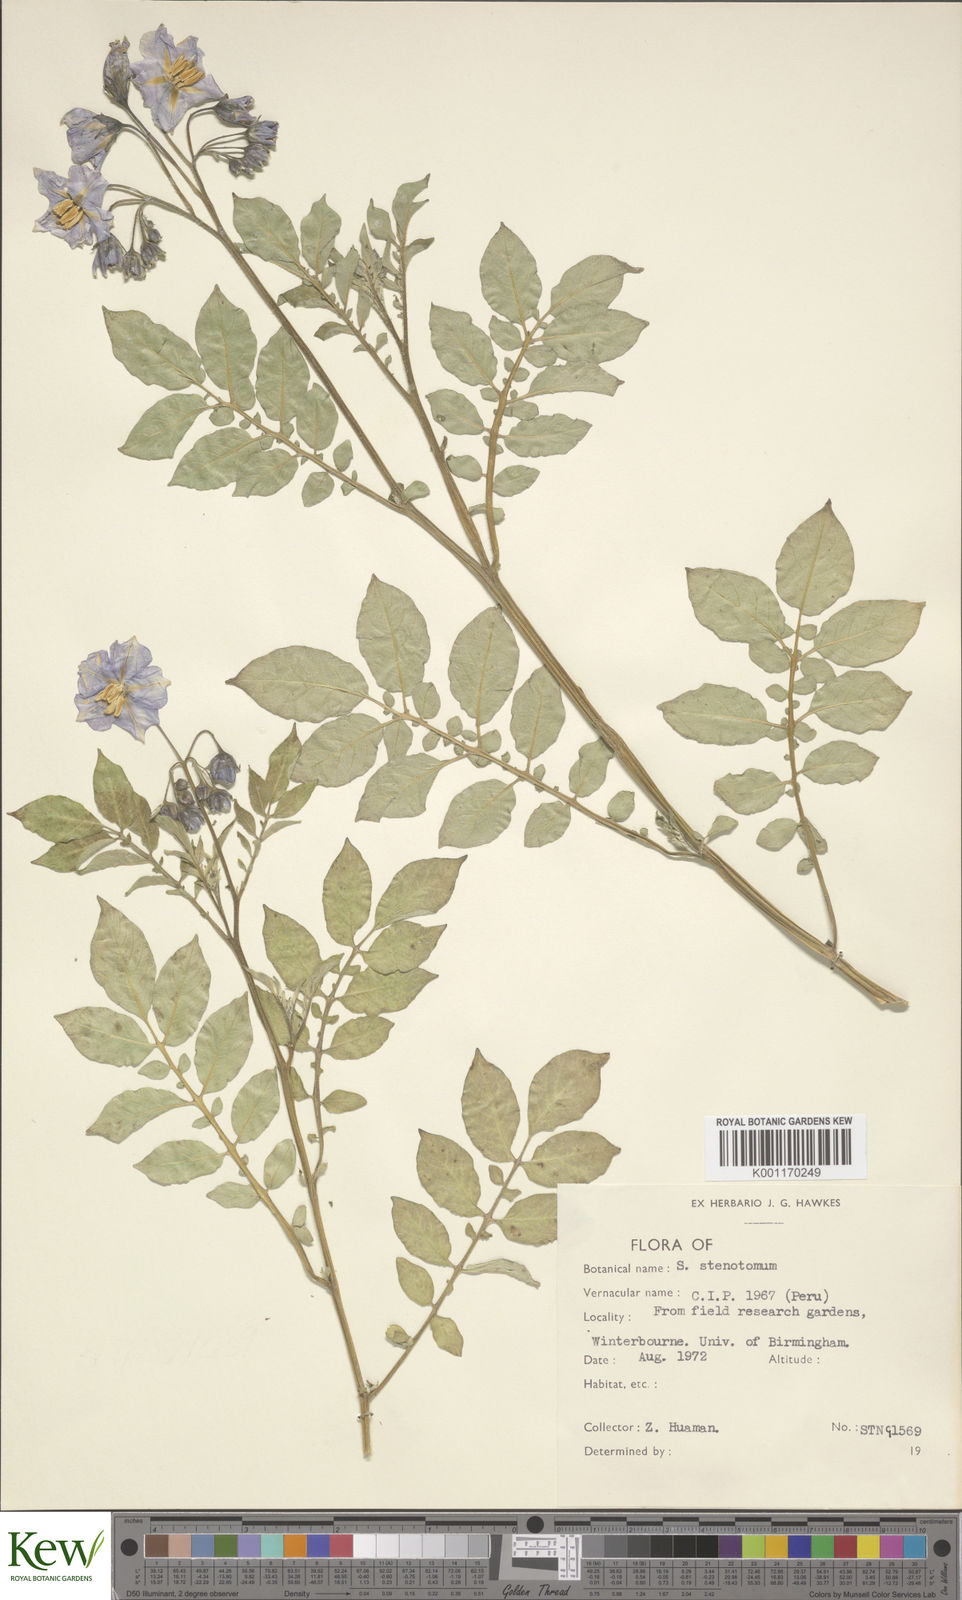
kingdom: Plantae
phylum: Tracheophyta
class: Magnoliopsida
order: Solanales
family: Solanaceae
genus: Solanum
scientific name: Solanum tuberosum
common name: Potato
